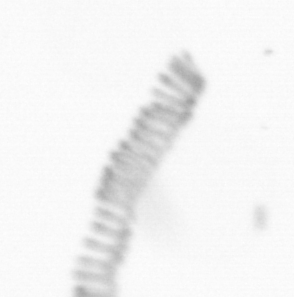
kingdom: Chromista
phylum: Ochrophyta
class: Bacillariophyceae
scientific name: Bacillariophyceae
